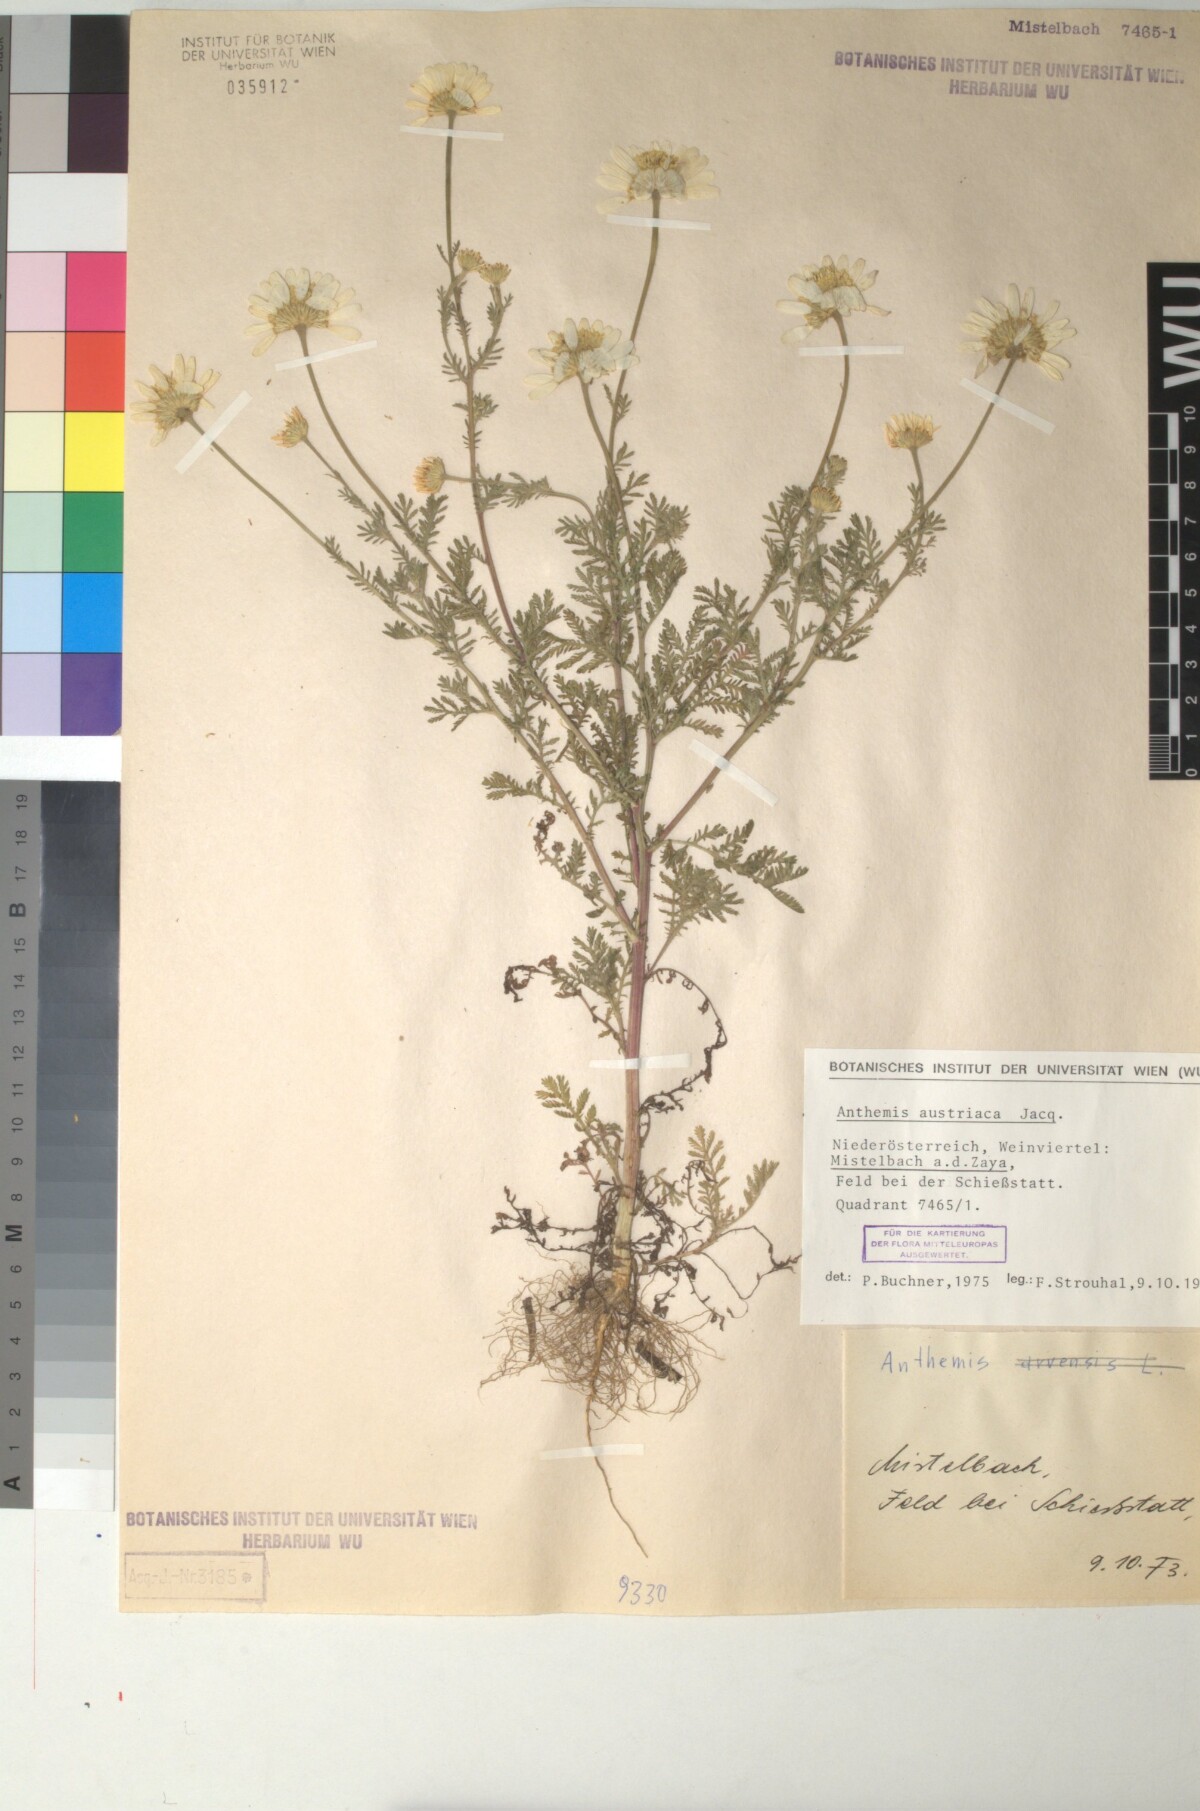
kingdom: Plantae
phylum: Tracheophyta
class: Magnoliopsida
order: Asterales
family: Asteraceae
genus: Cota
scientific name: Cota austriaca
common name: Austrian chamomile
